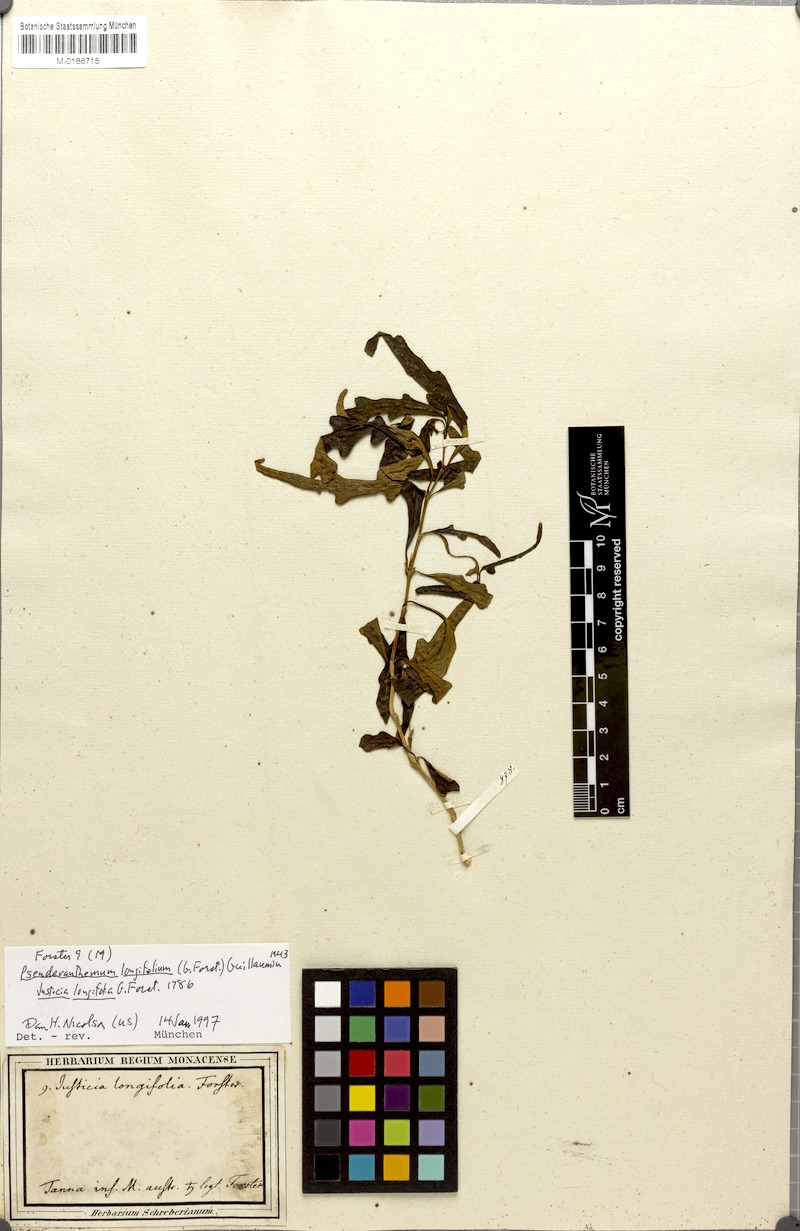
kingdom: Plantae
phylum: Tracheophyta
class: Magnoliopsida
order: Lamiales
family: Acanthaceae
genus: Pseuderanthemum
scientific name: Pseuderanthemum longifolium
